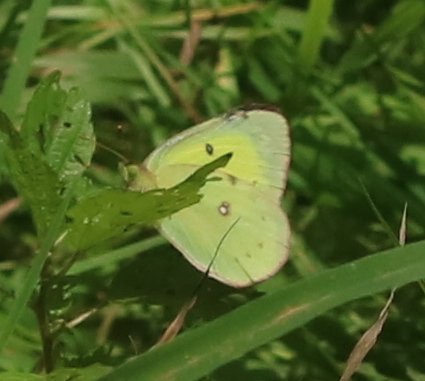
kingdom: Animalia
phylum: Arthropoda
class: Insecta
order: Lepidoptera
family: Pieridae
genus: Colias
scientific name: Colias philodice
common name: Clouded Sulphur
